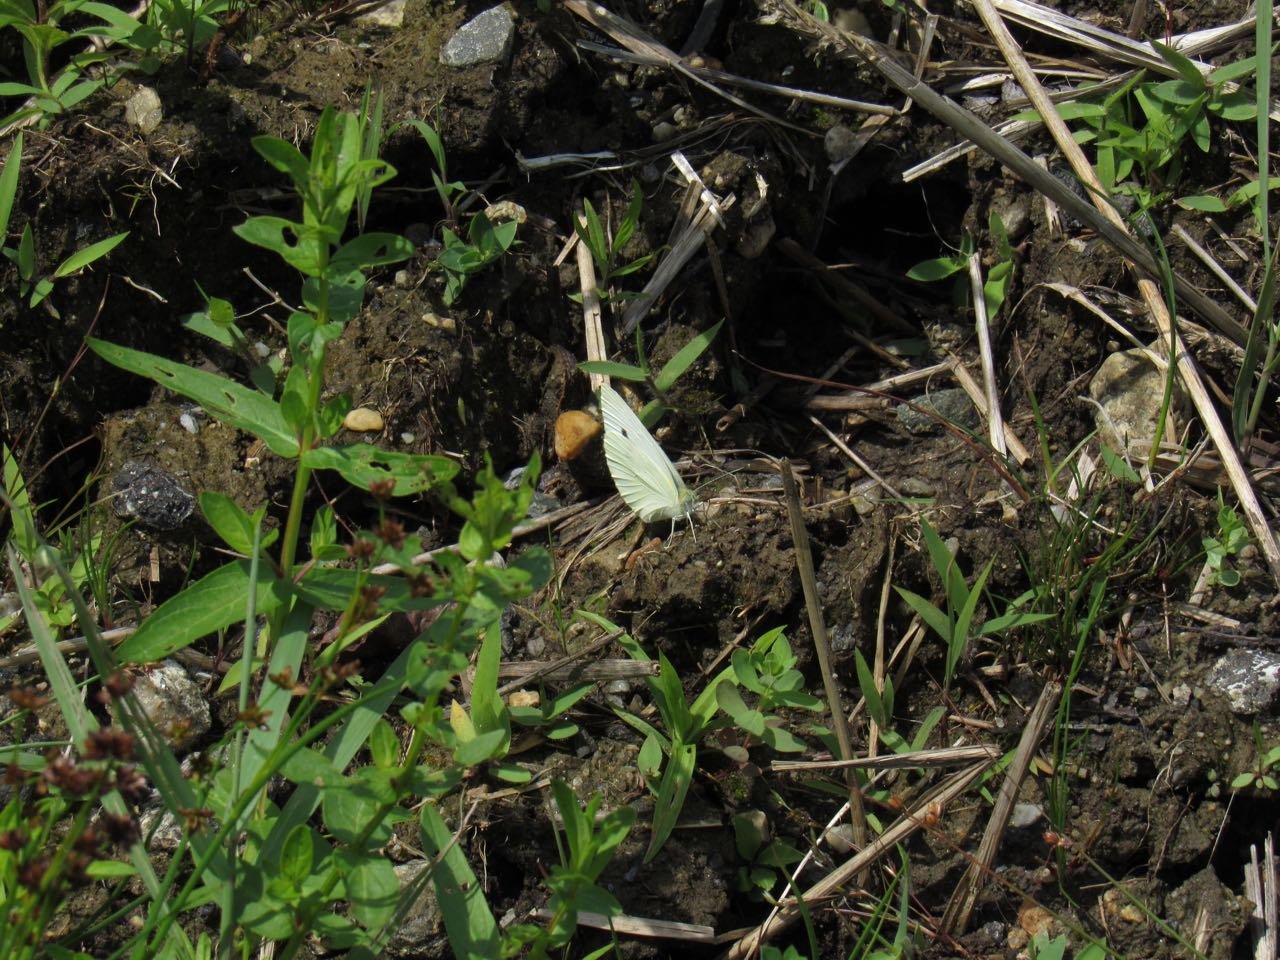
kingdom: Animalia
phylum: Arthropoda
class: Insecta
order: Lepidoptera
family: Pieridae
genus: Pieris
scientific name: Pieris rapae
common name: Cabbage White
